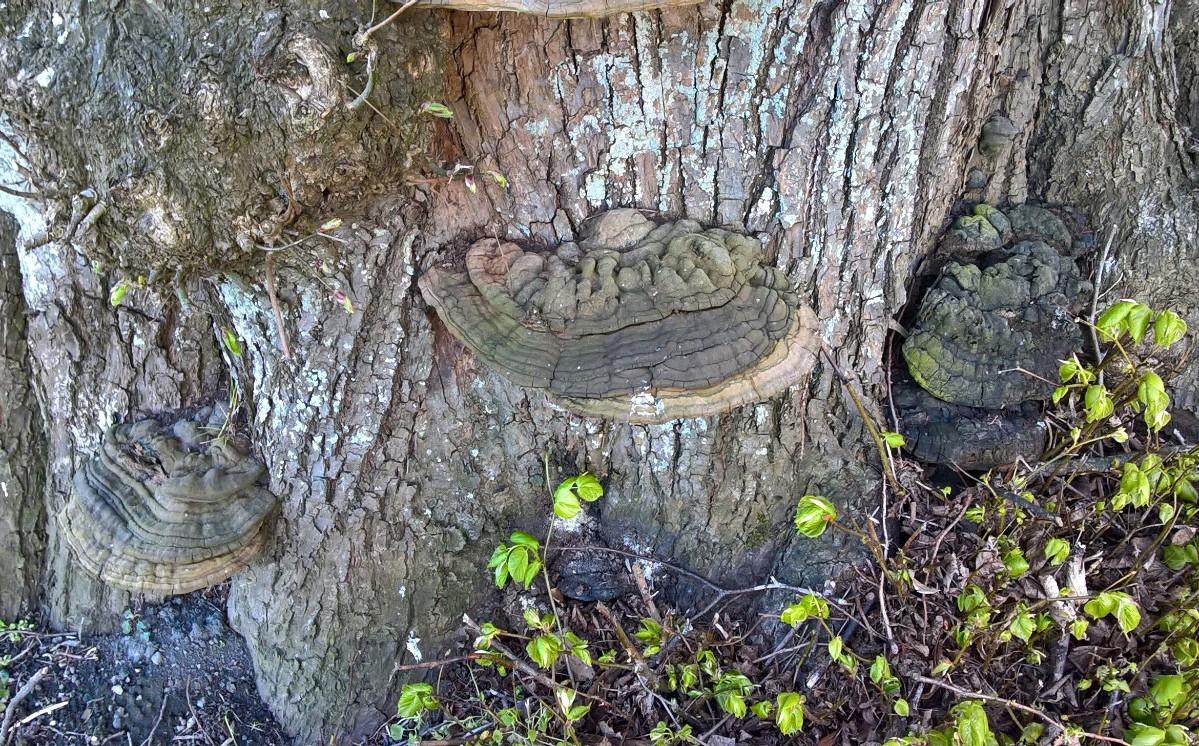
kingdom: Fungi
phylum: Basidiomycota
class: Agaricomycetes
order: Polyporales
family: Polyporaceae
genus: Ganoderma
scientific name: Ganoderma adspersum
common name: grov lakporesvamp
